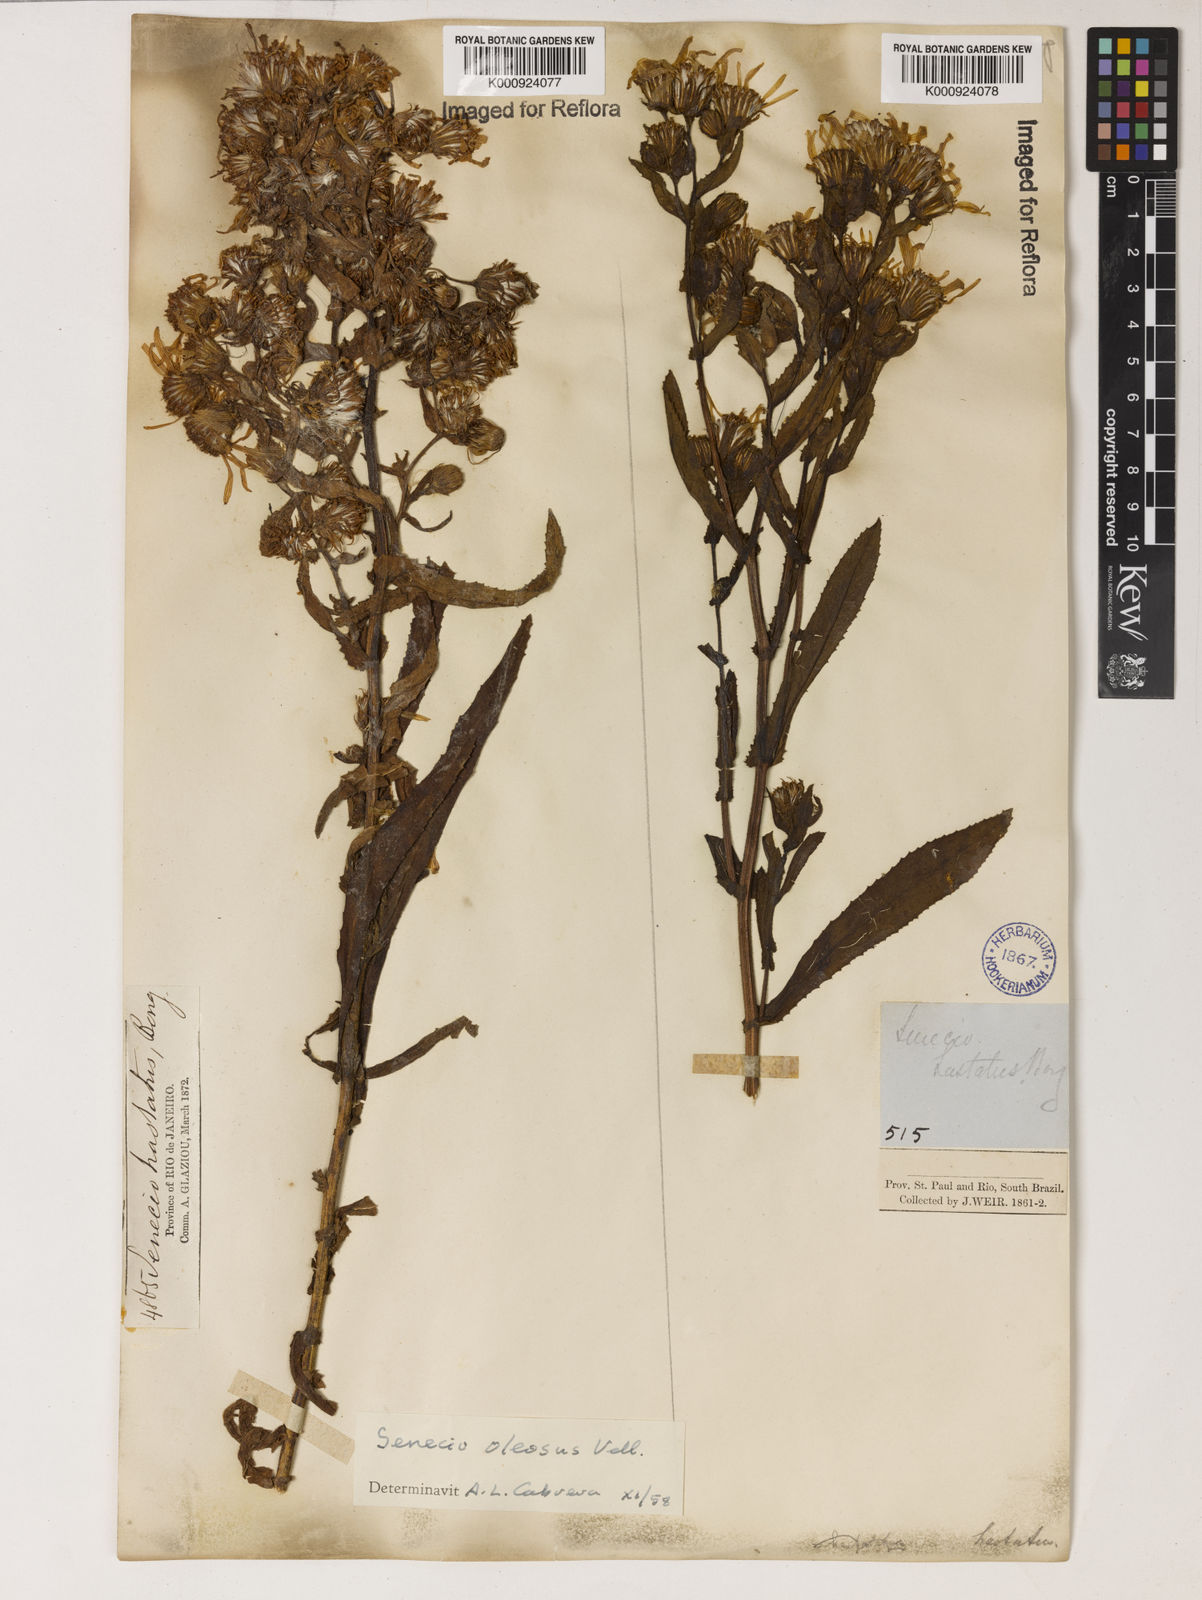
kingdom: Plantae
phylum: Tracheophyta
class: Magnoliopsida
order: Asterales
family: Asteraceae
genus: Senecio
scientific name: Senecio oleosus
